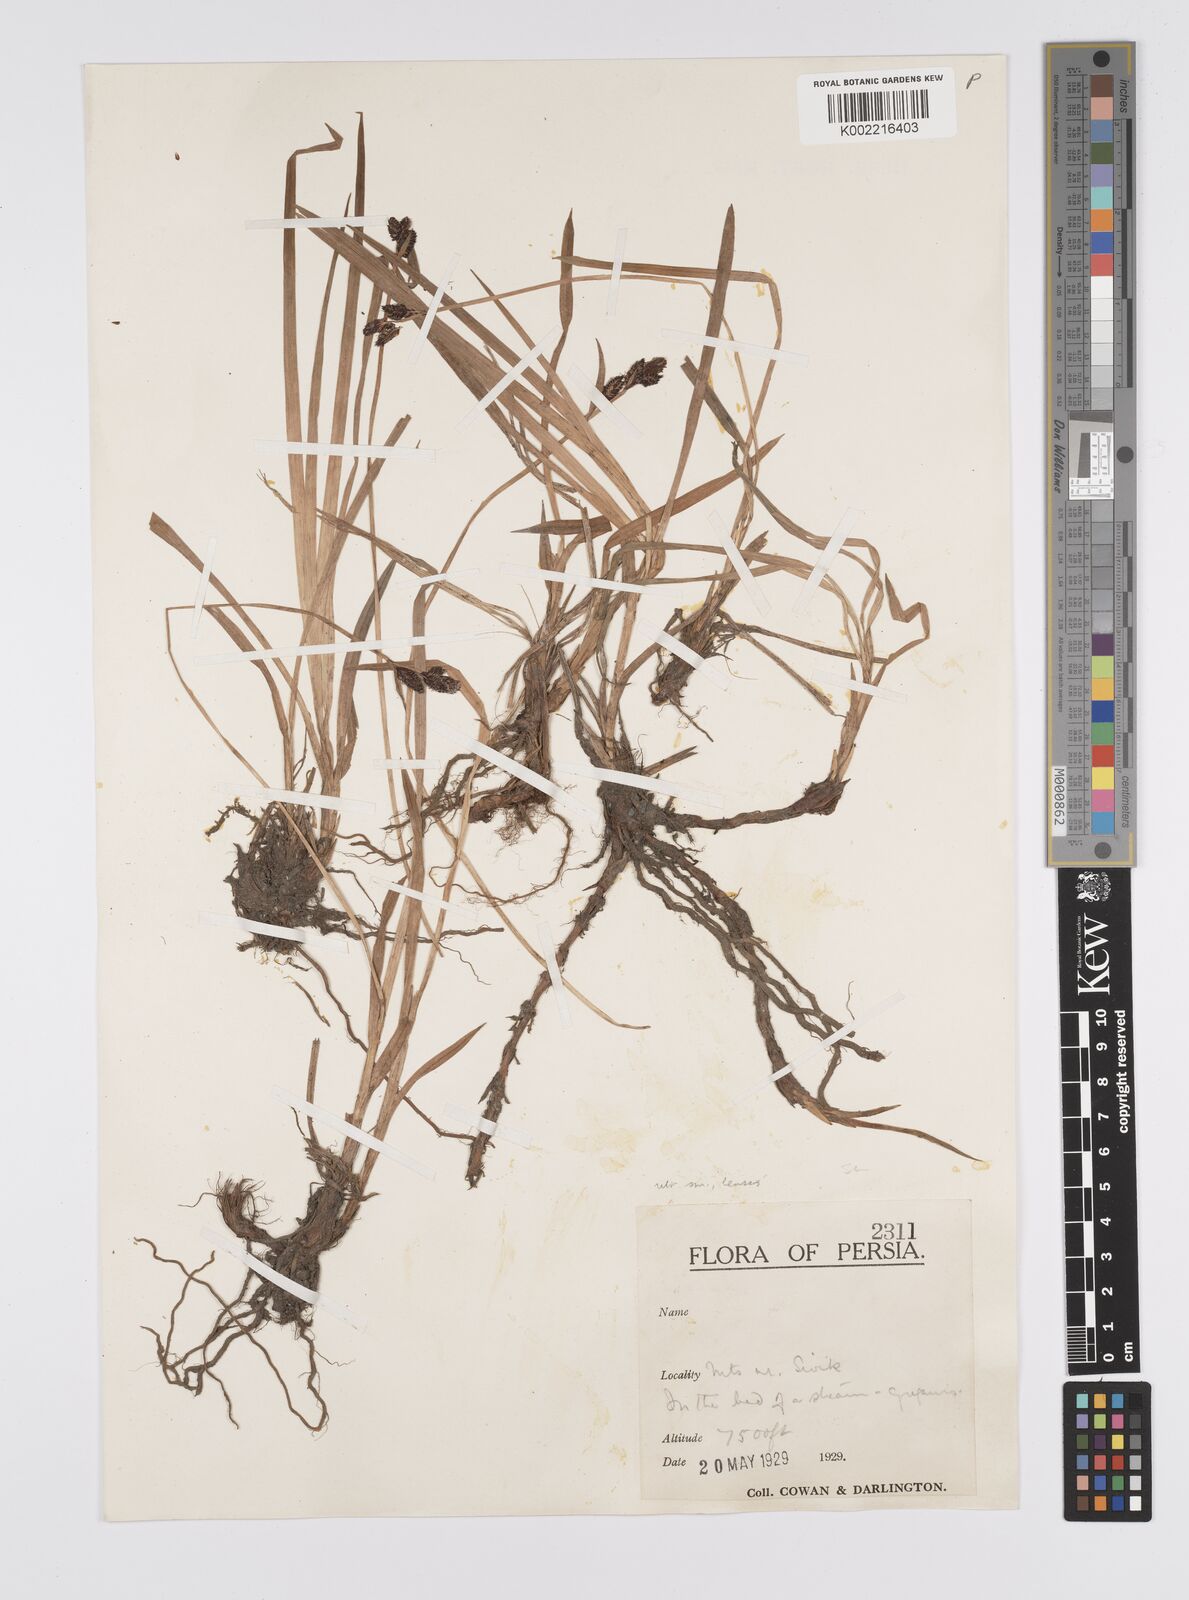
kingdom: Plantae
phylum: Tracheophyta
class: Liliopsida
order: Poales
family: Cyperaceae
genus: Carex
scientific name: Carex dacica
